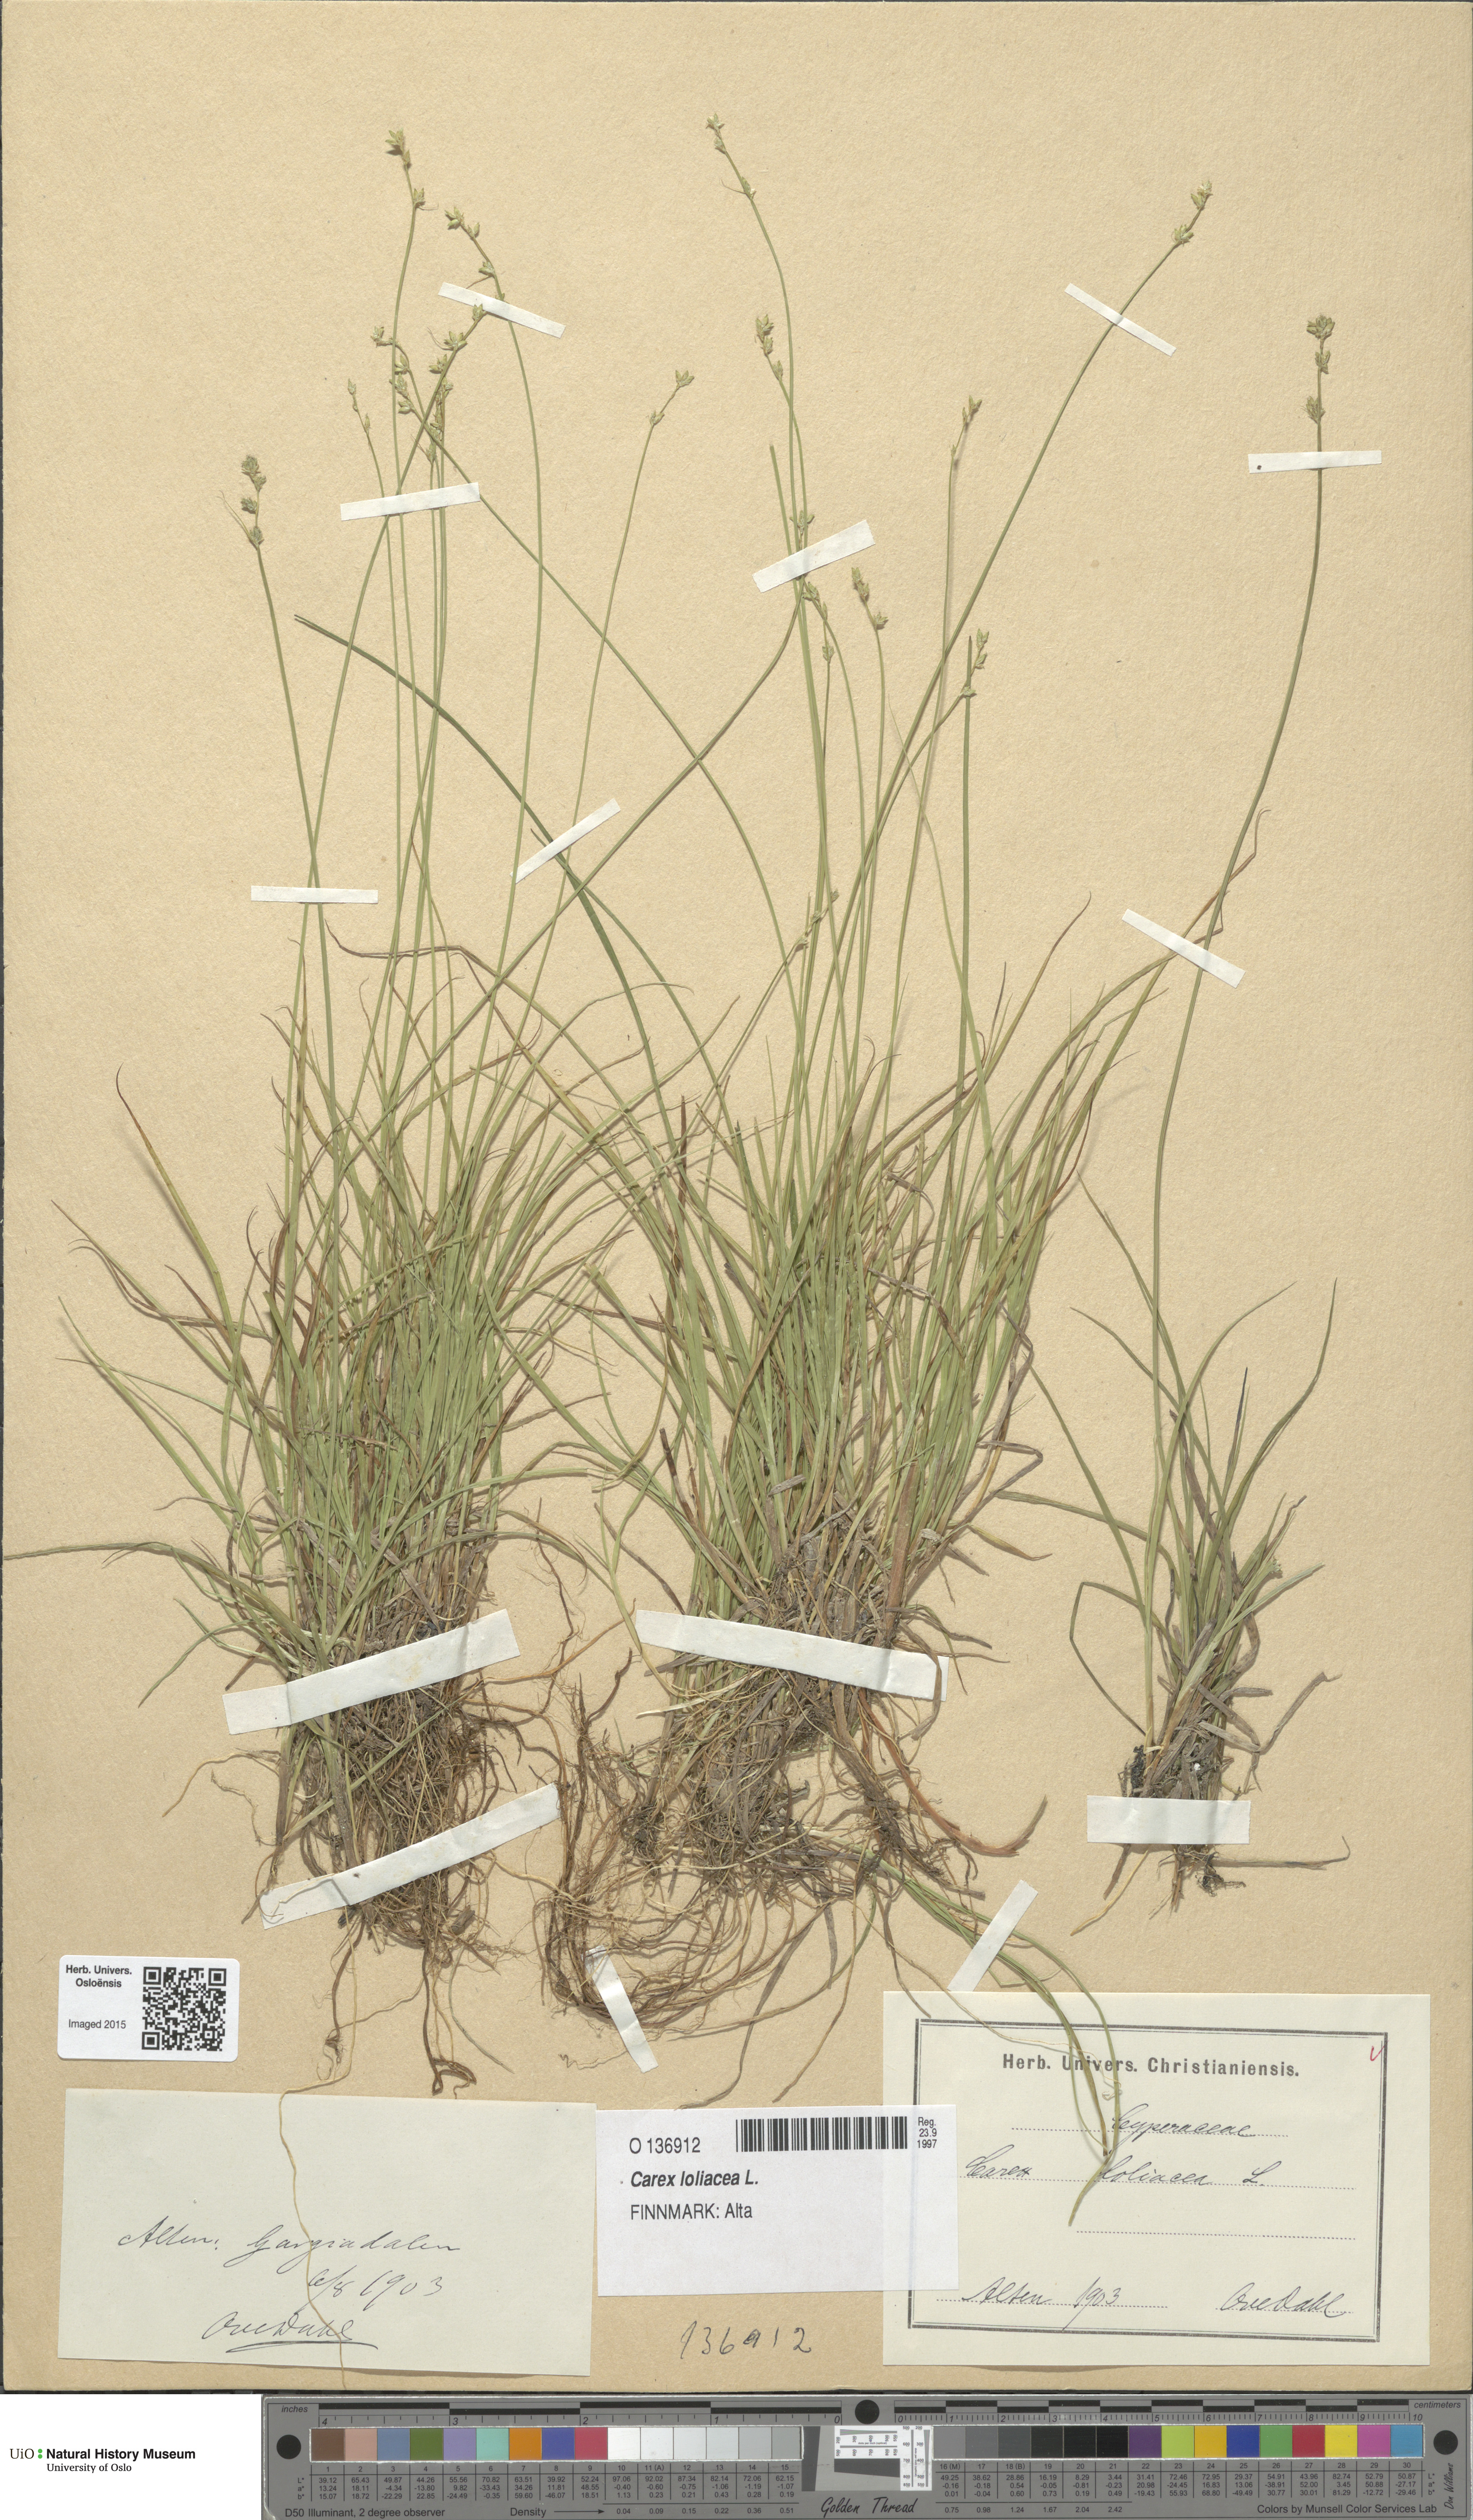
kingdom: Plantae
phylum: Tracheophyta
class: Liliopsida
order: Poales
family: Cyperaceae
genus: Carex
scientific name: Carex loliacea
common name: Ryegrass sedge
